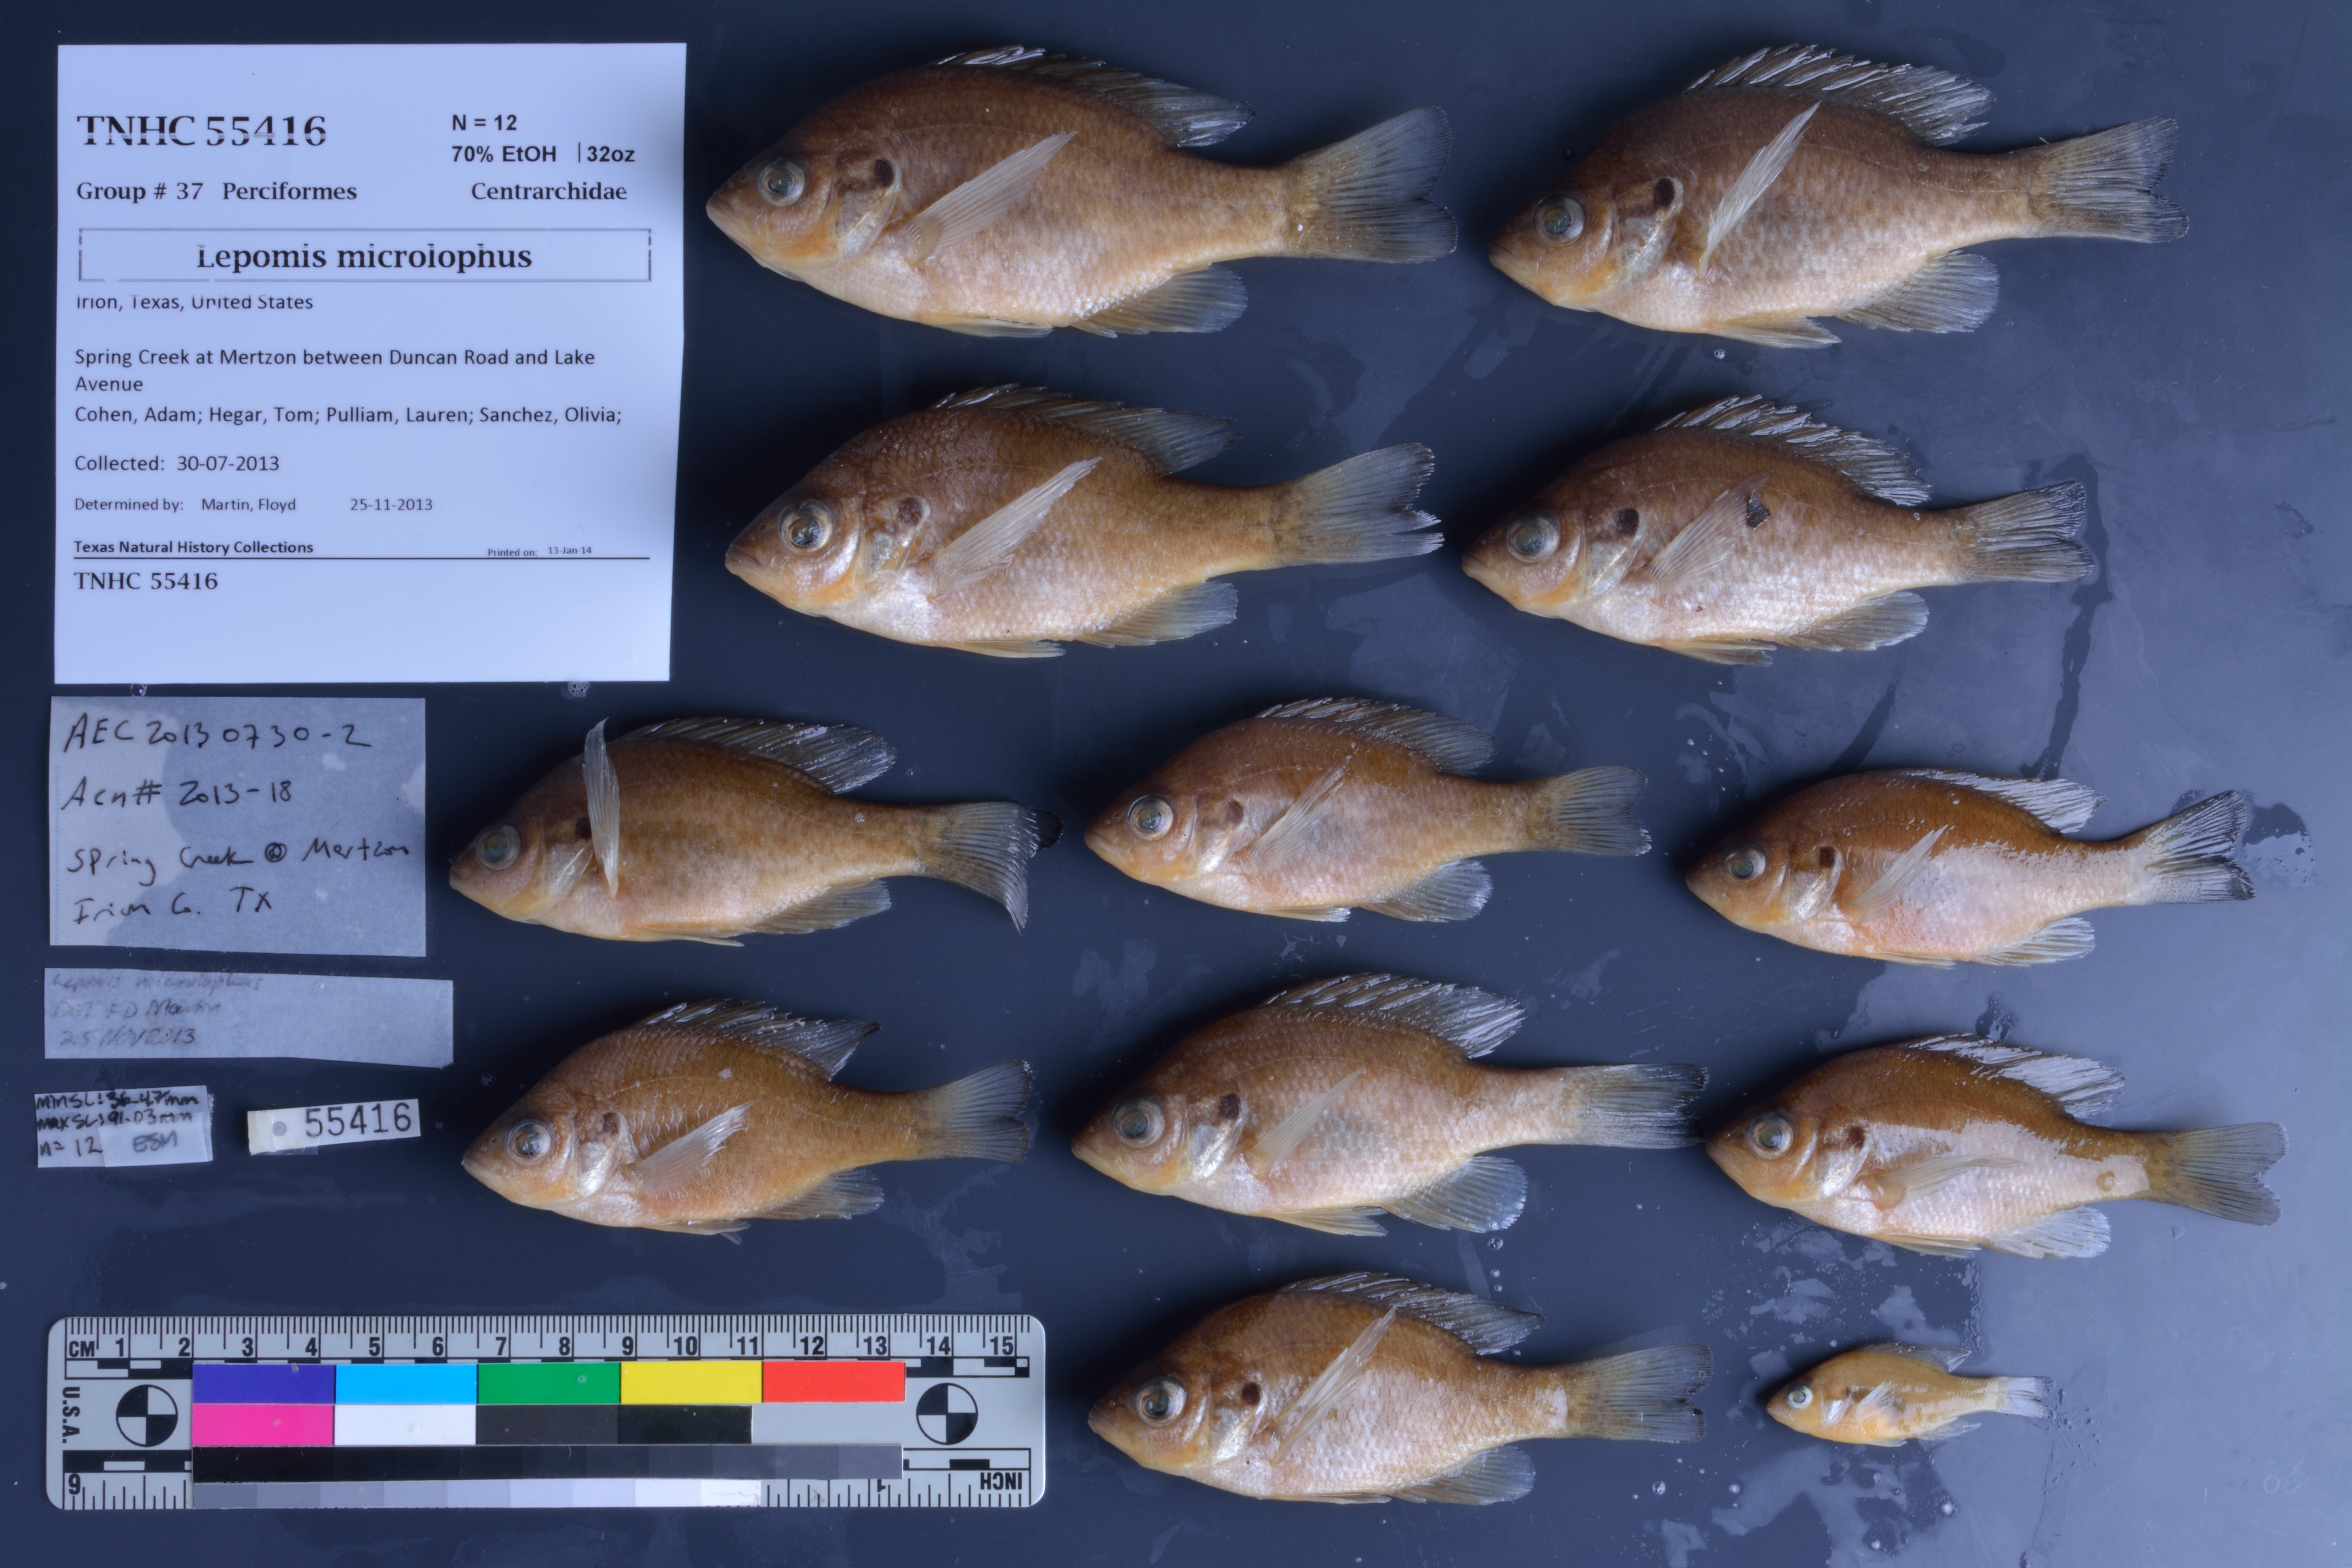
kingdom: Animalia
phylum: Chordata
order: Perciformes
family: Centrarchidae
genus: Lepomis
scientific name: Lepomis microlophus
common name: Redear sunfish
